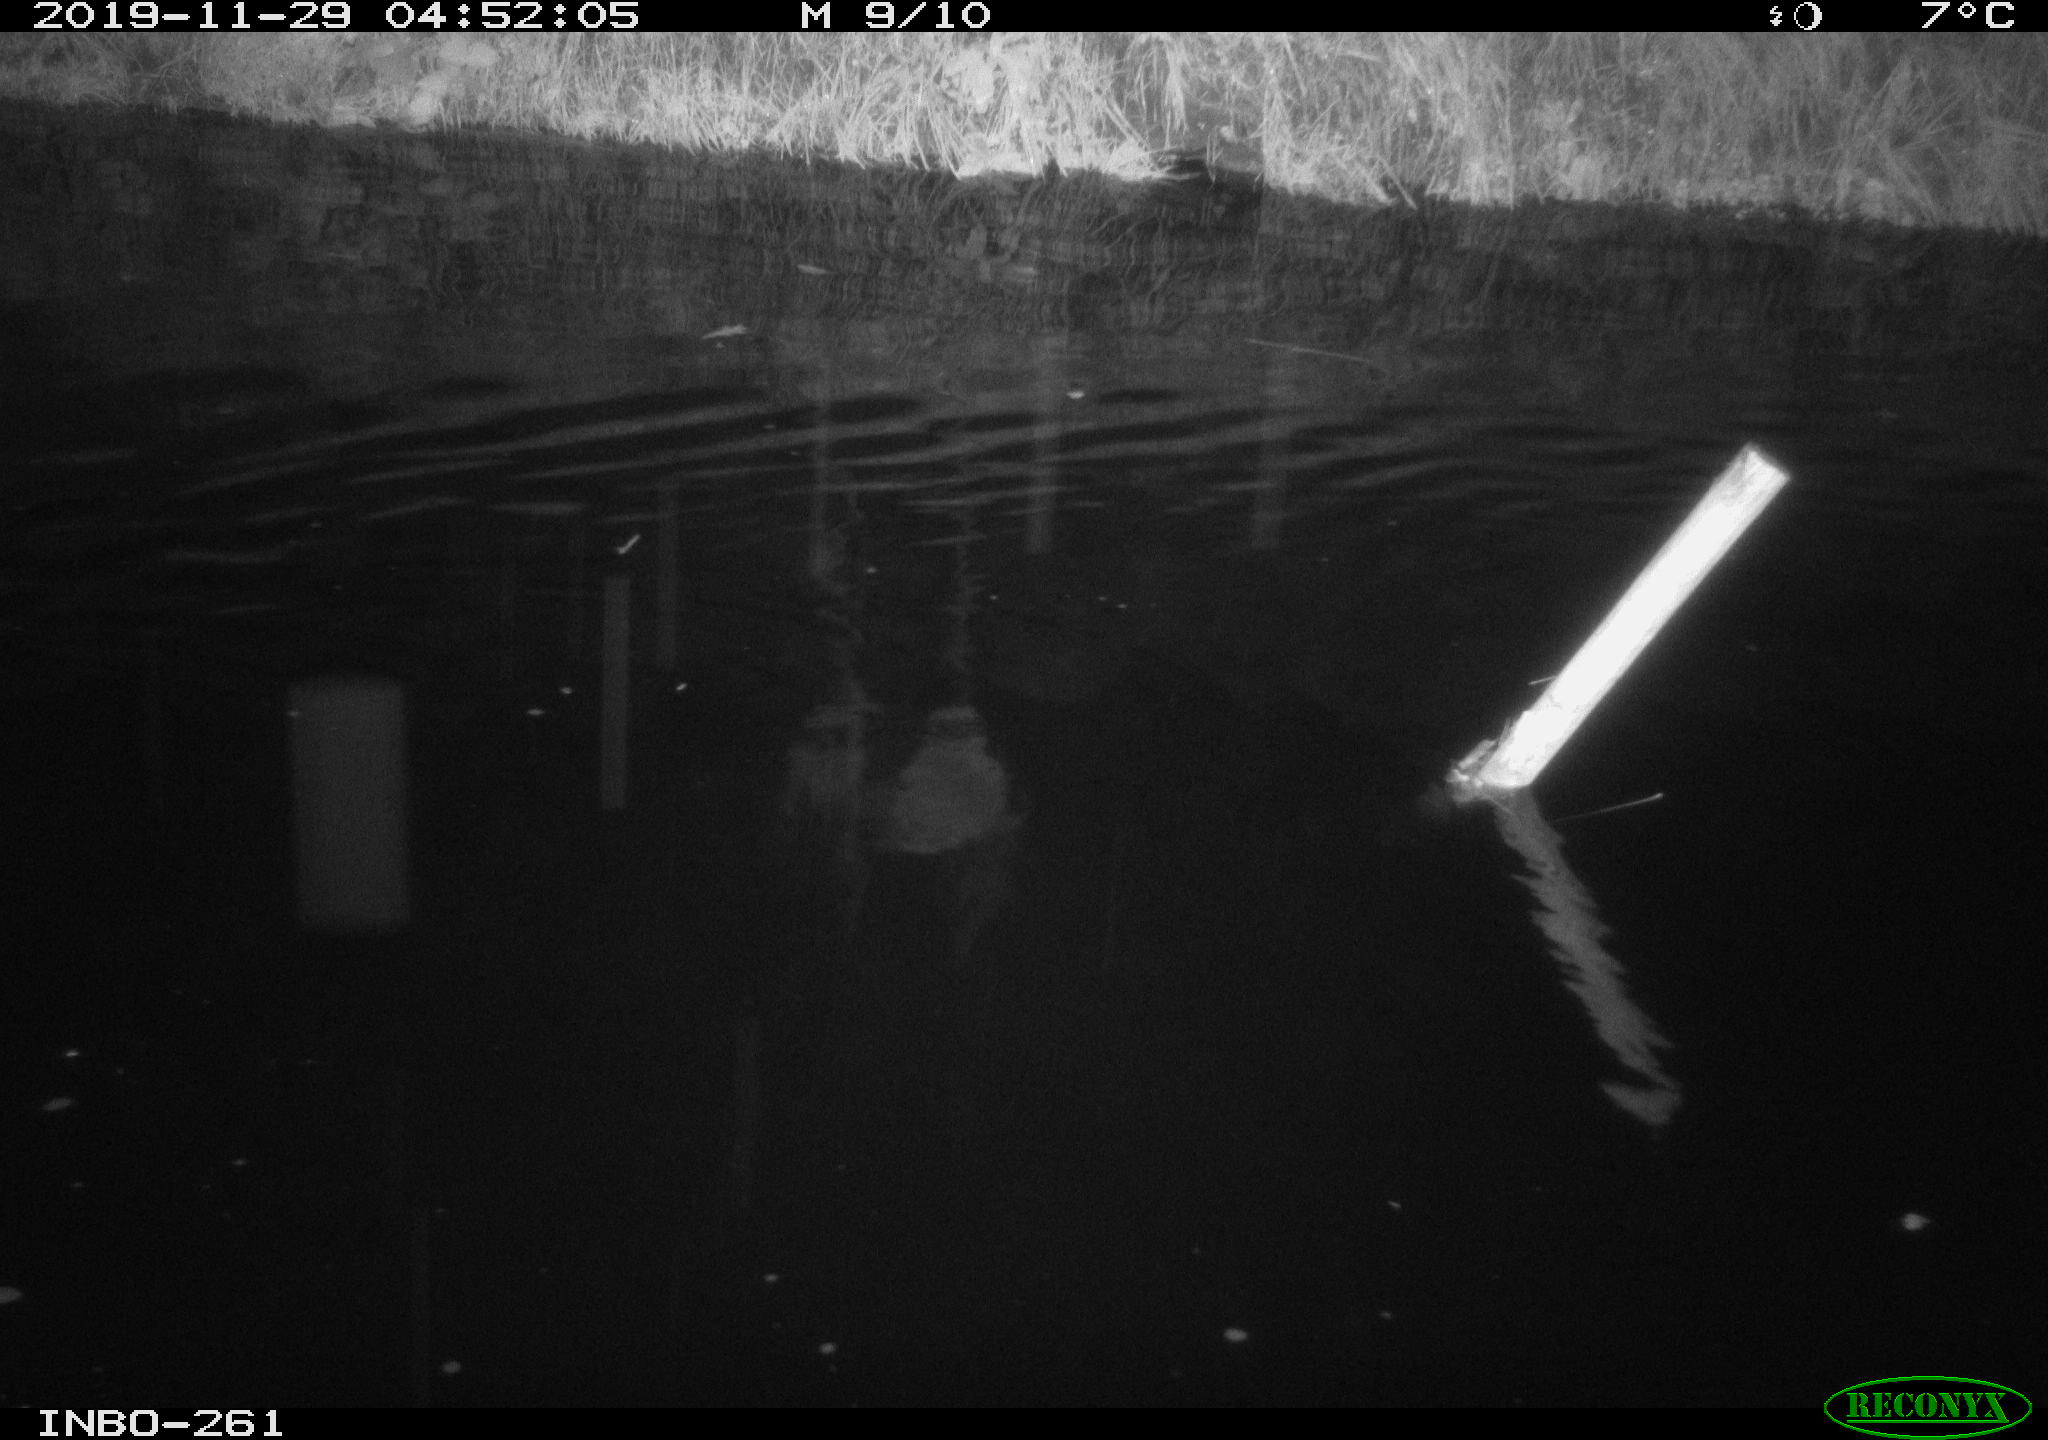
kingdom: Animalia
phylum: Chordata
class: Aves
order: Anseriformes
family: Anatidae
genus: Anas
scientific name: Anas platyrhynchos
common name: Mallard
